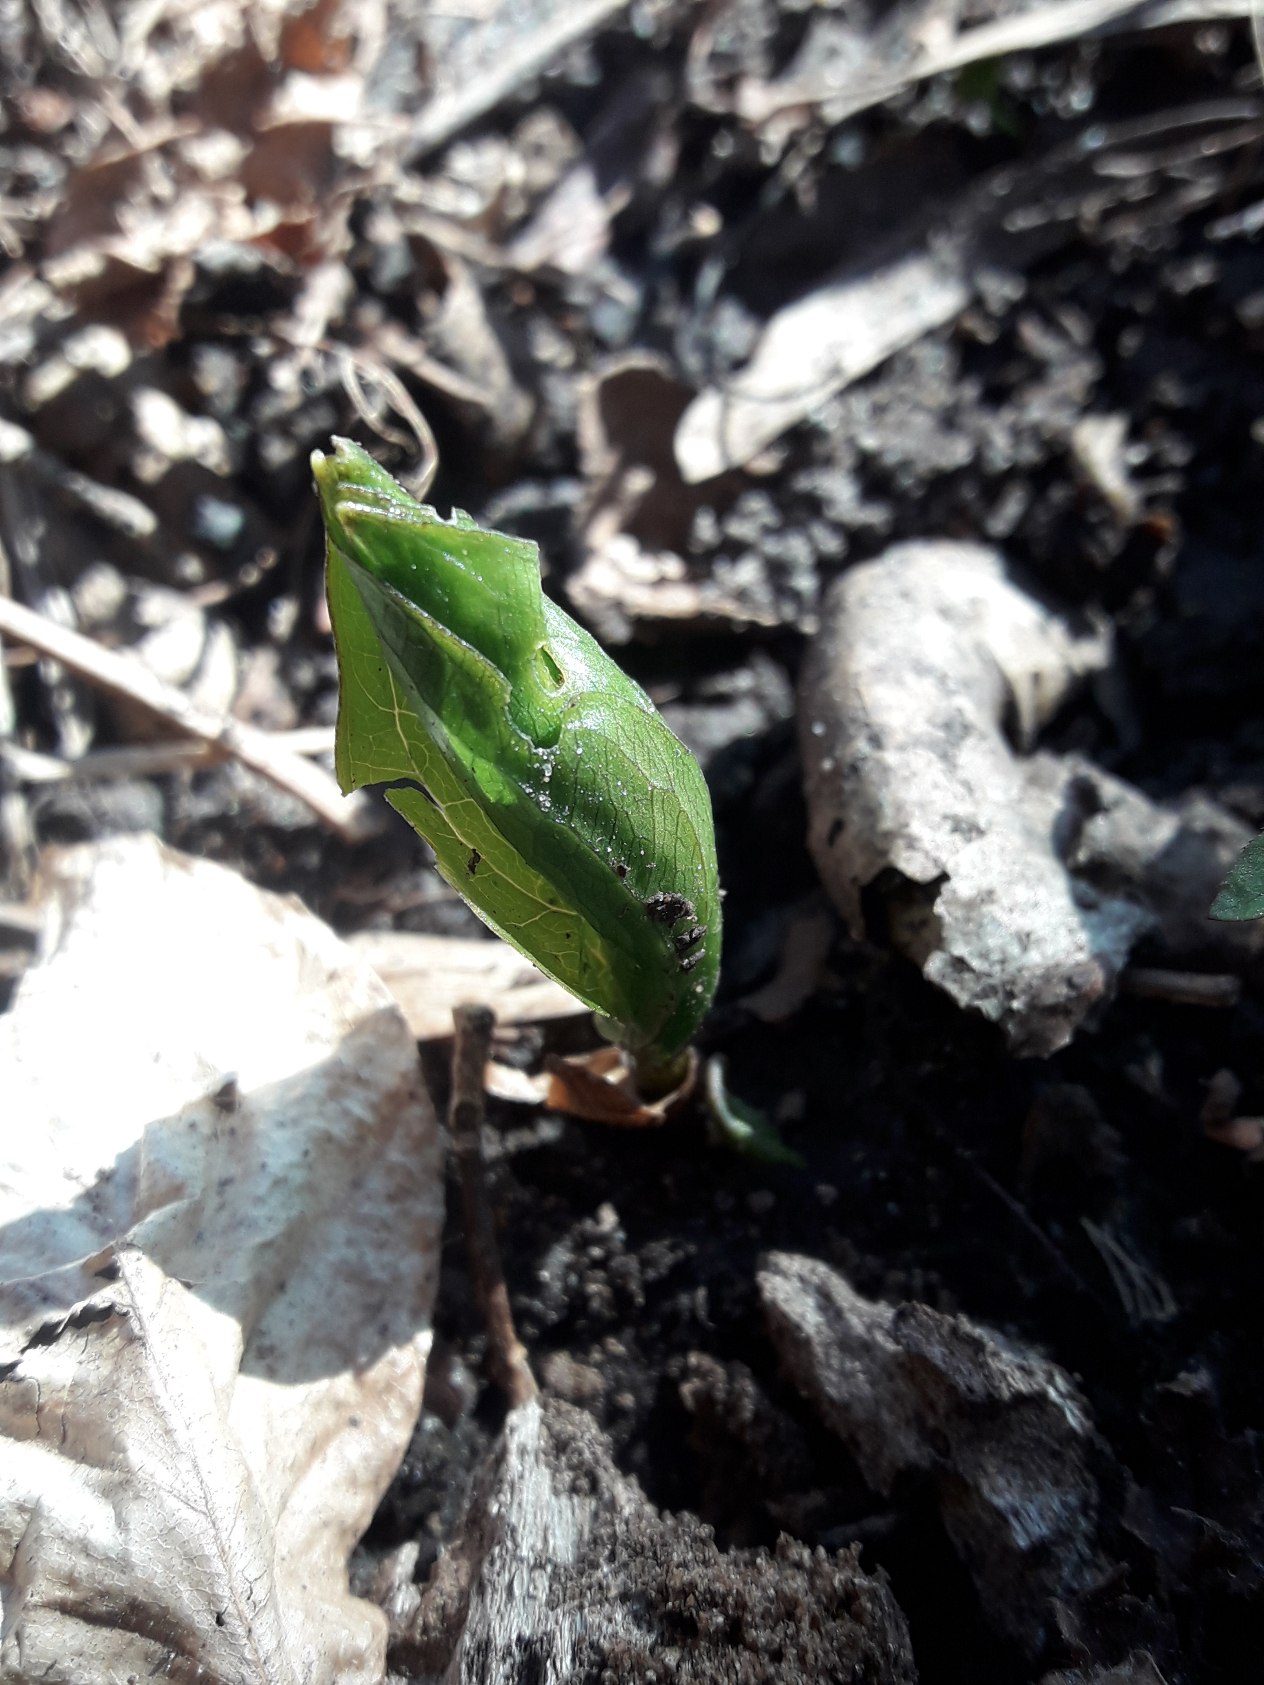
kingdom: Plantae
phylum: Tracheophyta
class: Liliopsida
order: Liliales
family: Melanthiaceae
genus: Paris
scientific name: Paris quadrifolia
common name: Firblad
